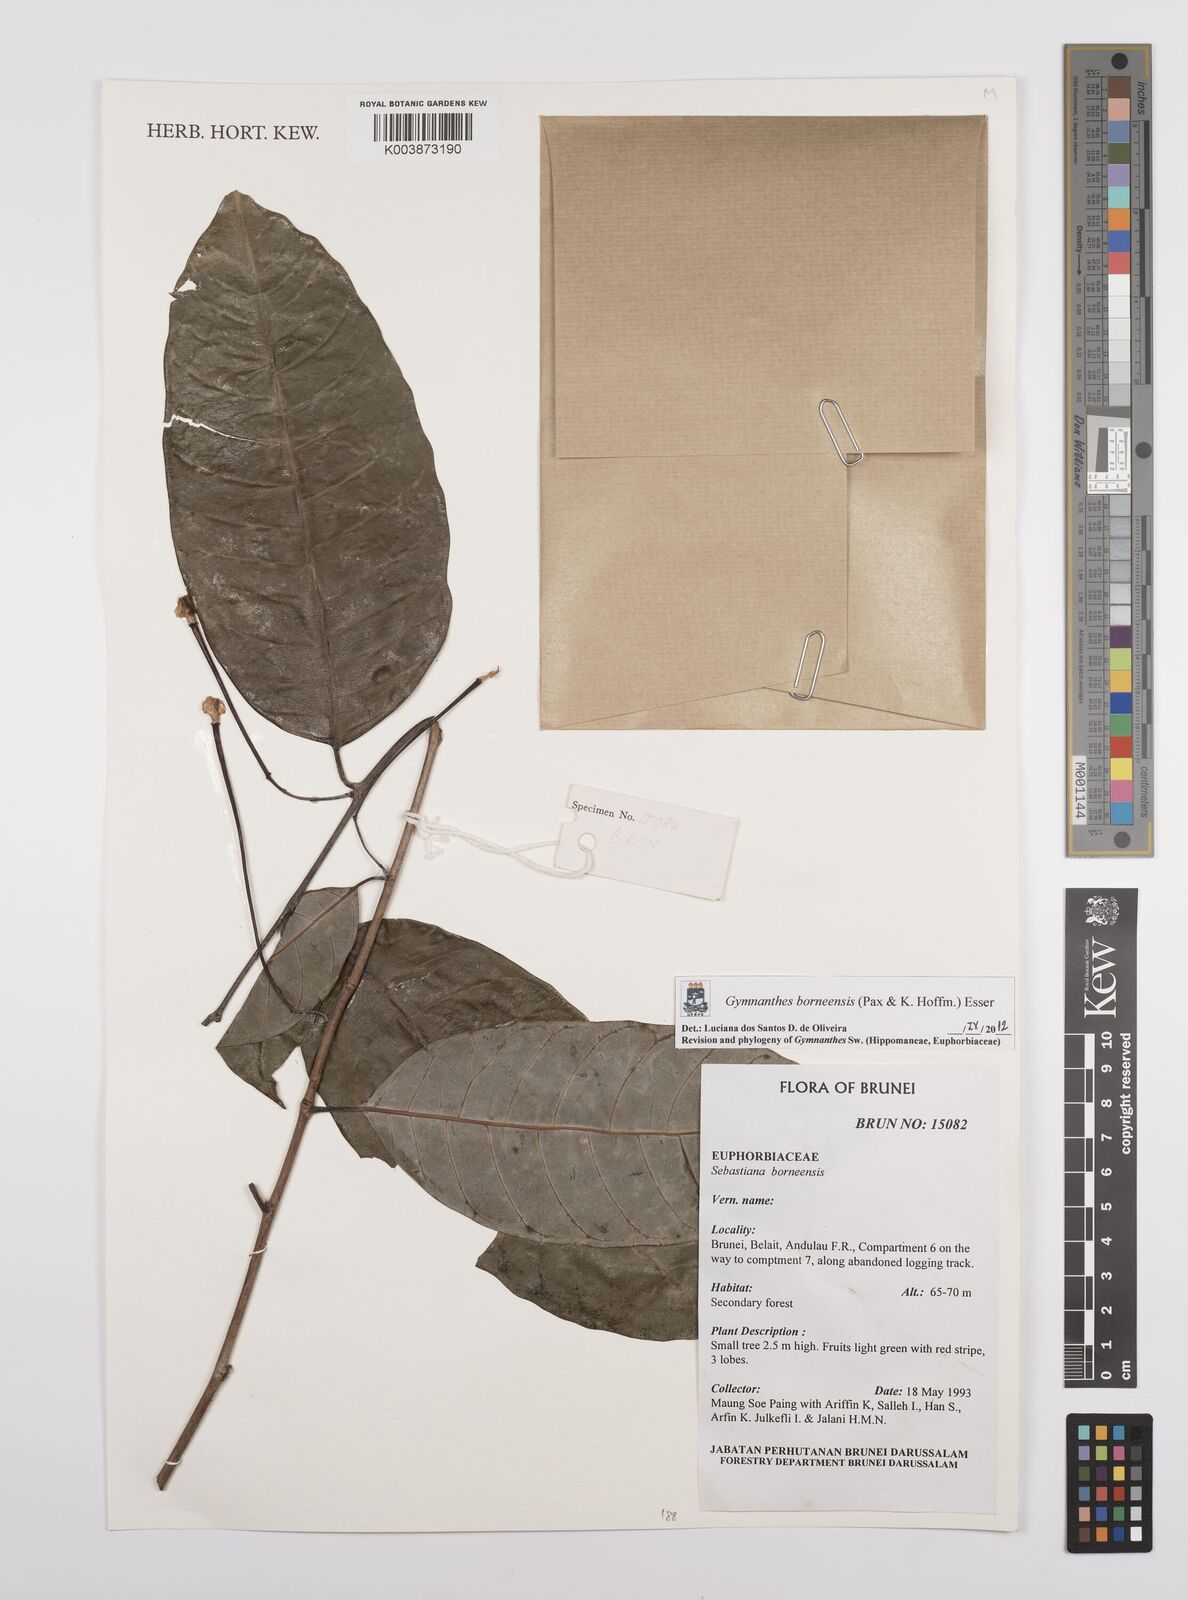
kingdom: Plantae
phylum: Tracheophyta
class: Magnoliopsida
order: Malpighiales
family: Euphorbiaceae
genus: Gymnanthes
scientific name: Gymnanthes borneensis
